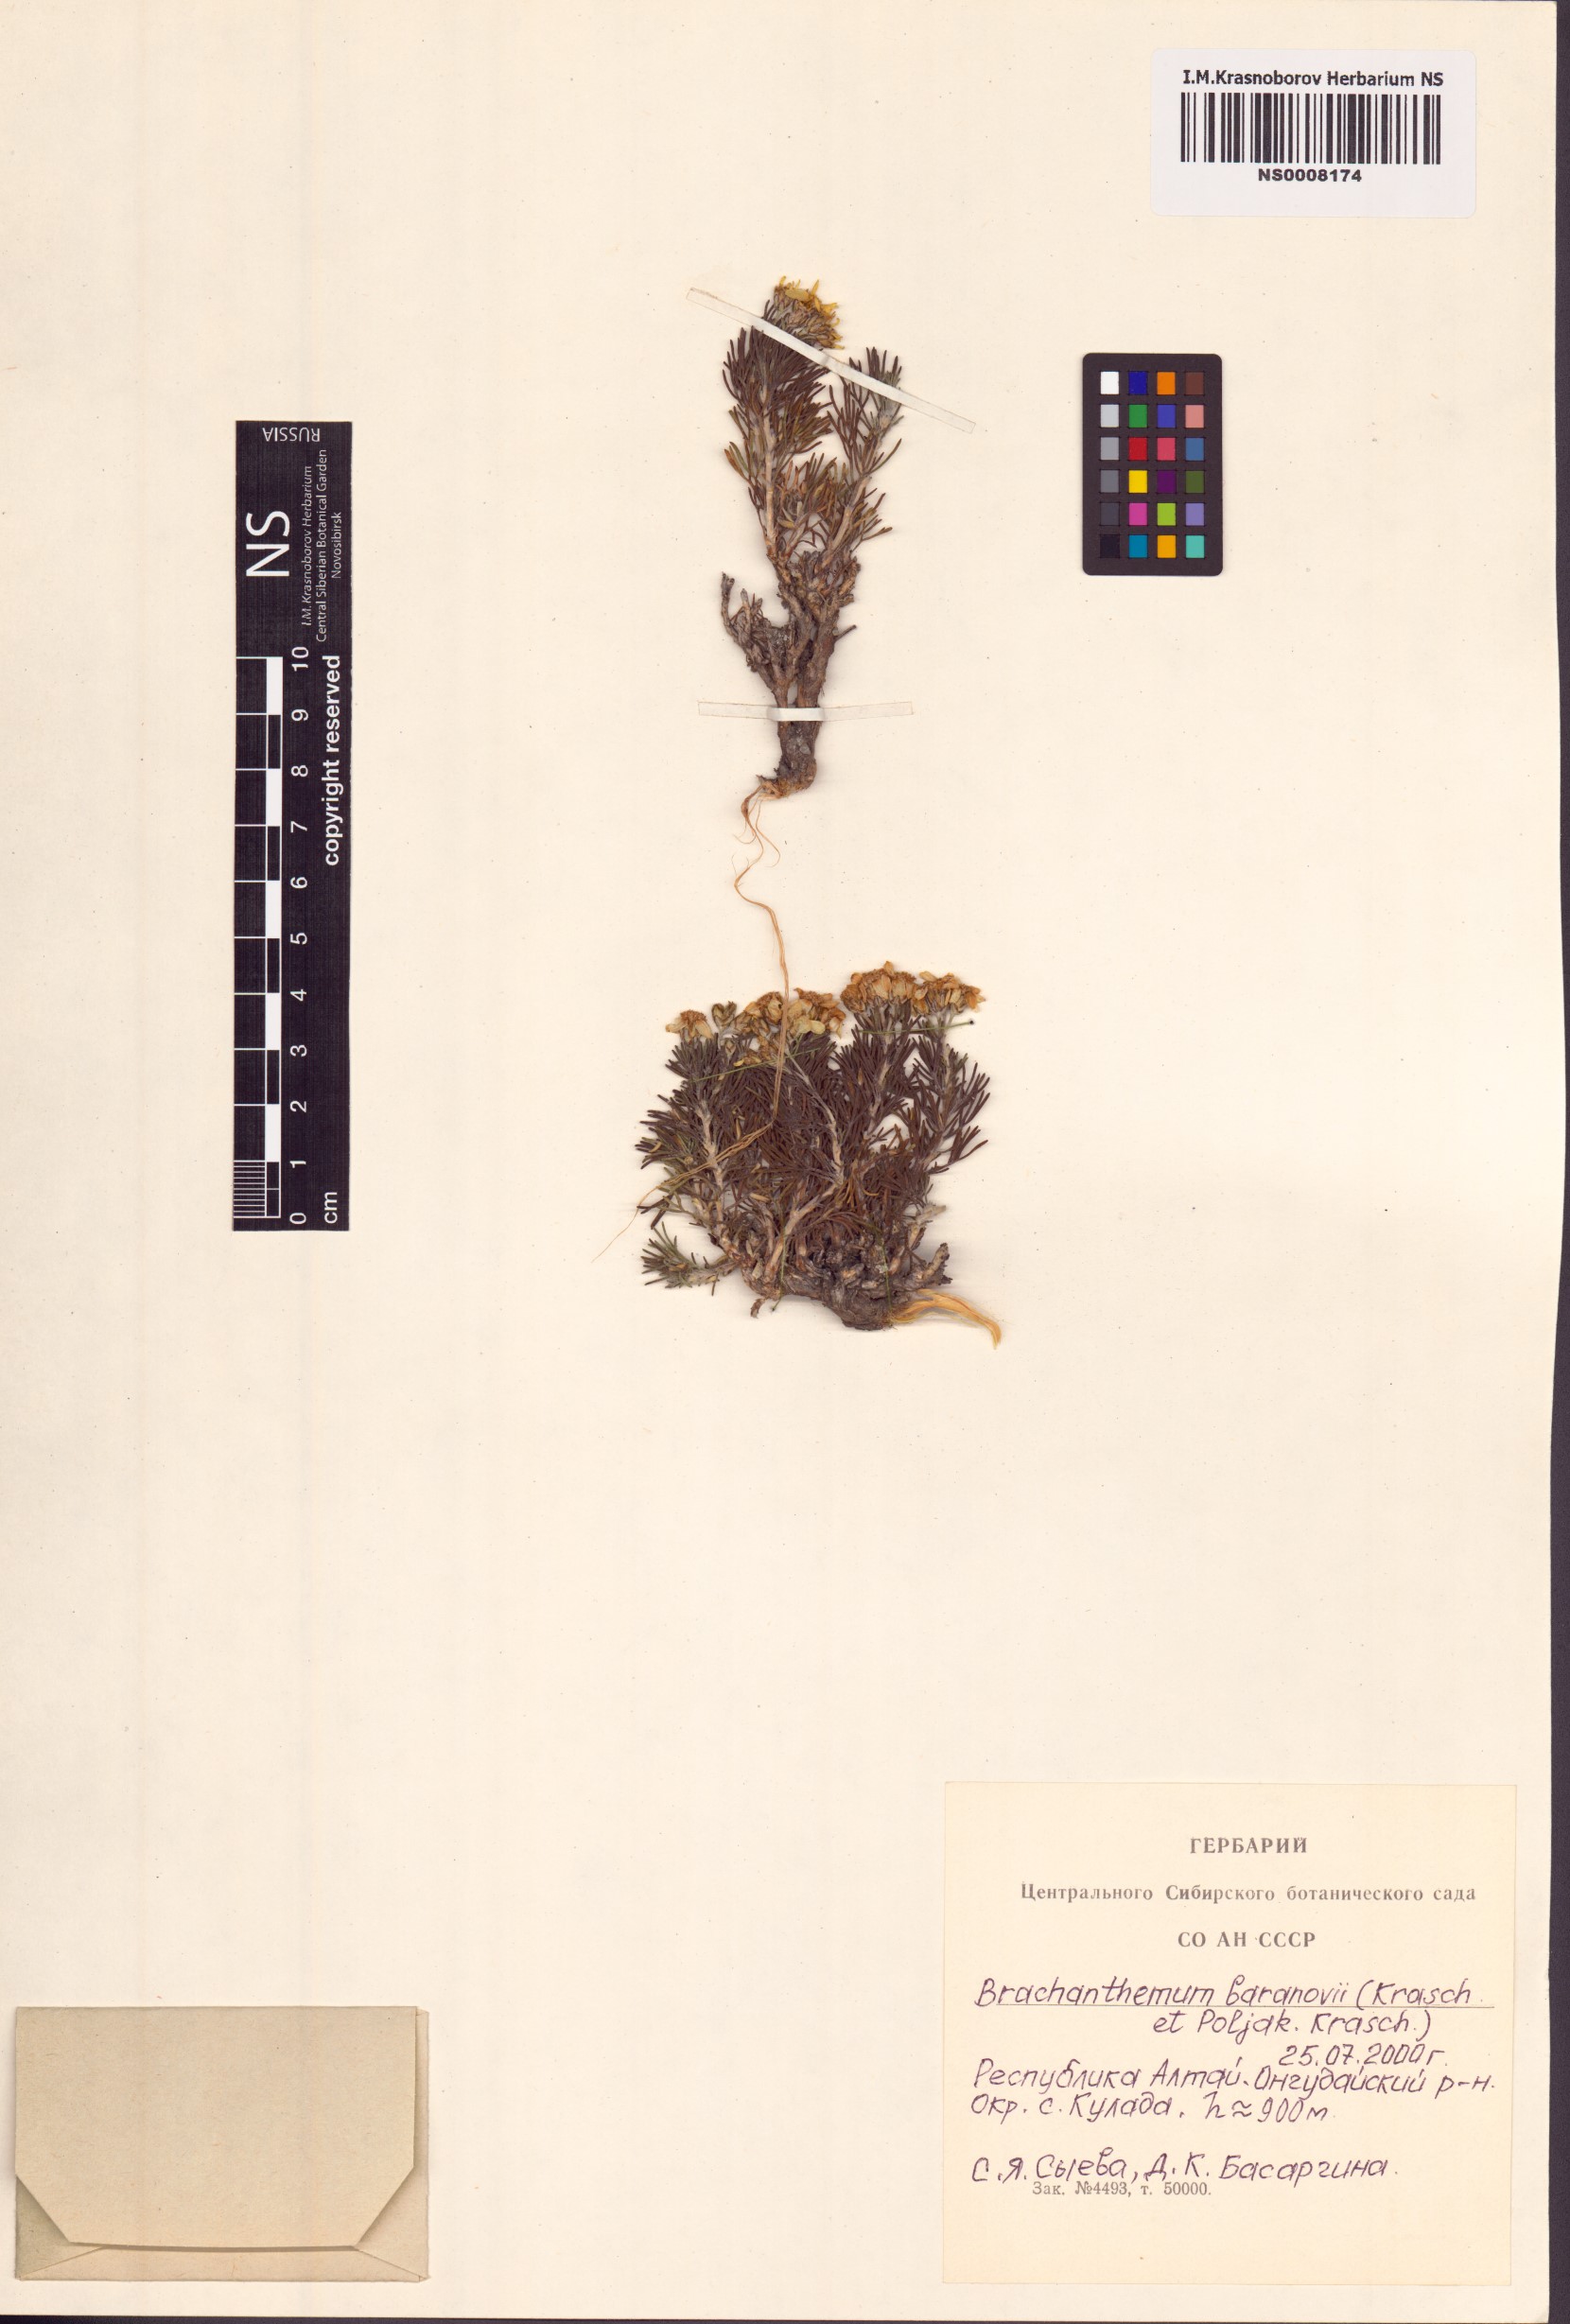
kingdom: Plantae
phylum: Tracheophyta
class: Magnoliopsida
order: Asterales
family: Asteraceae
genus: Brachanthemum
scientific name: Brachanthemum baranovii
